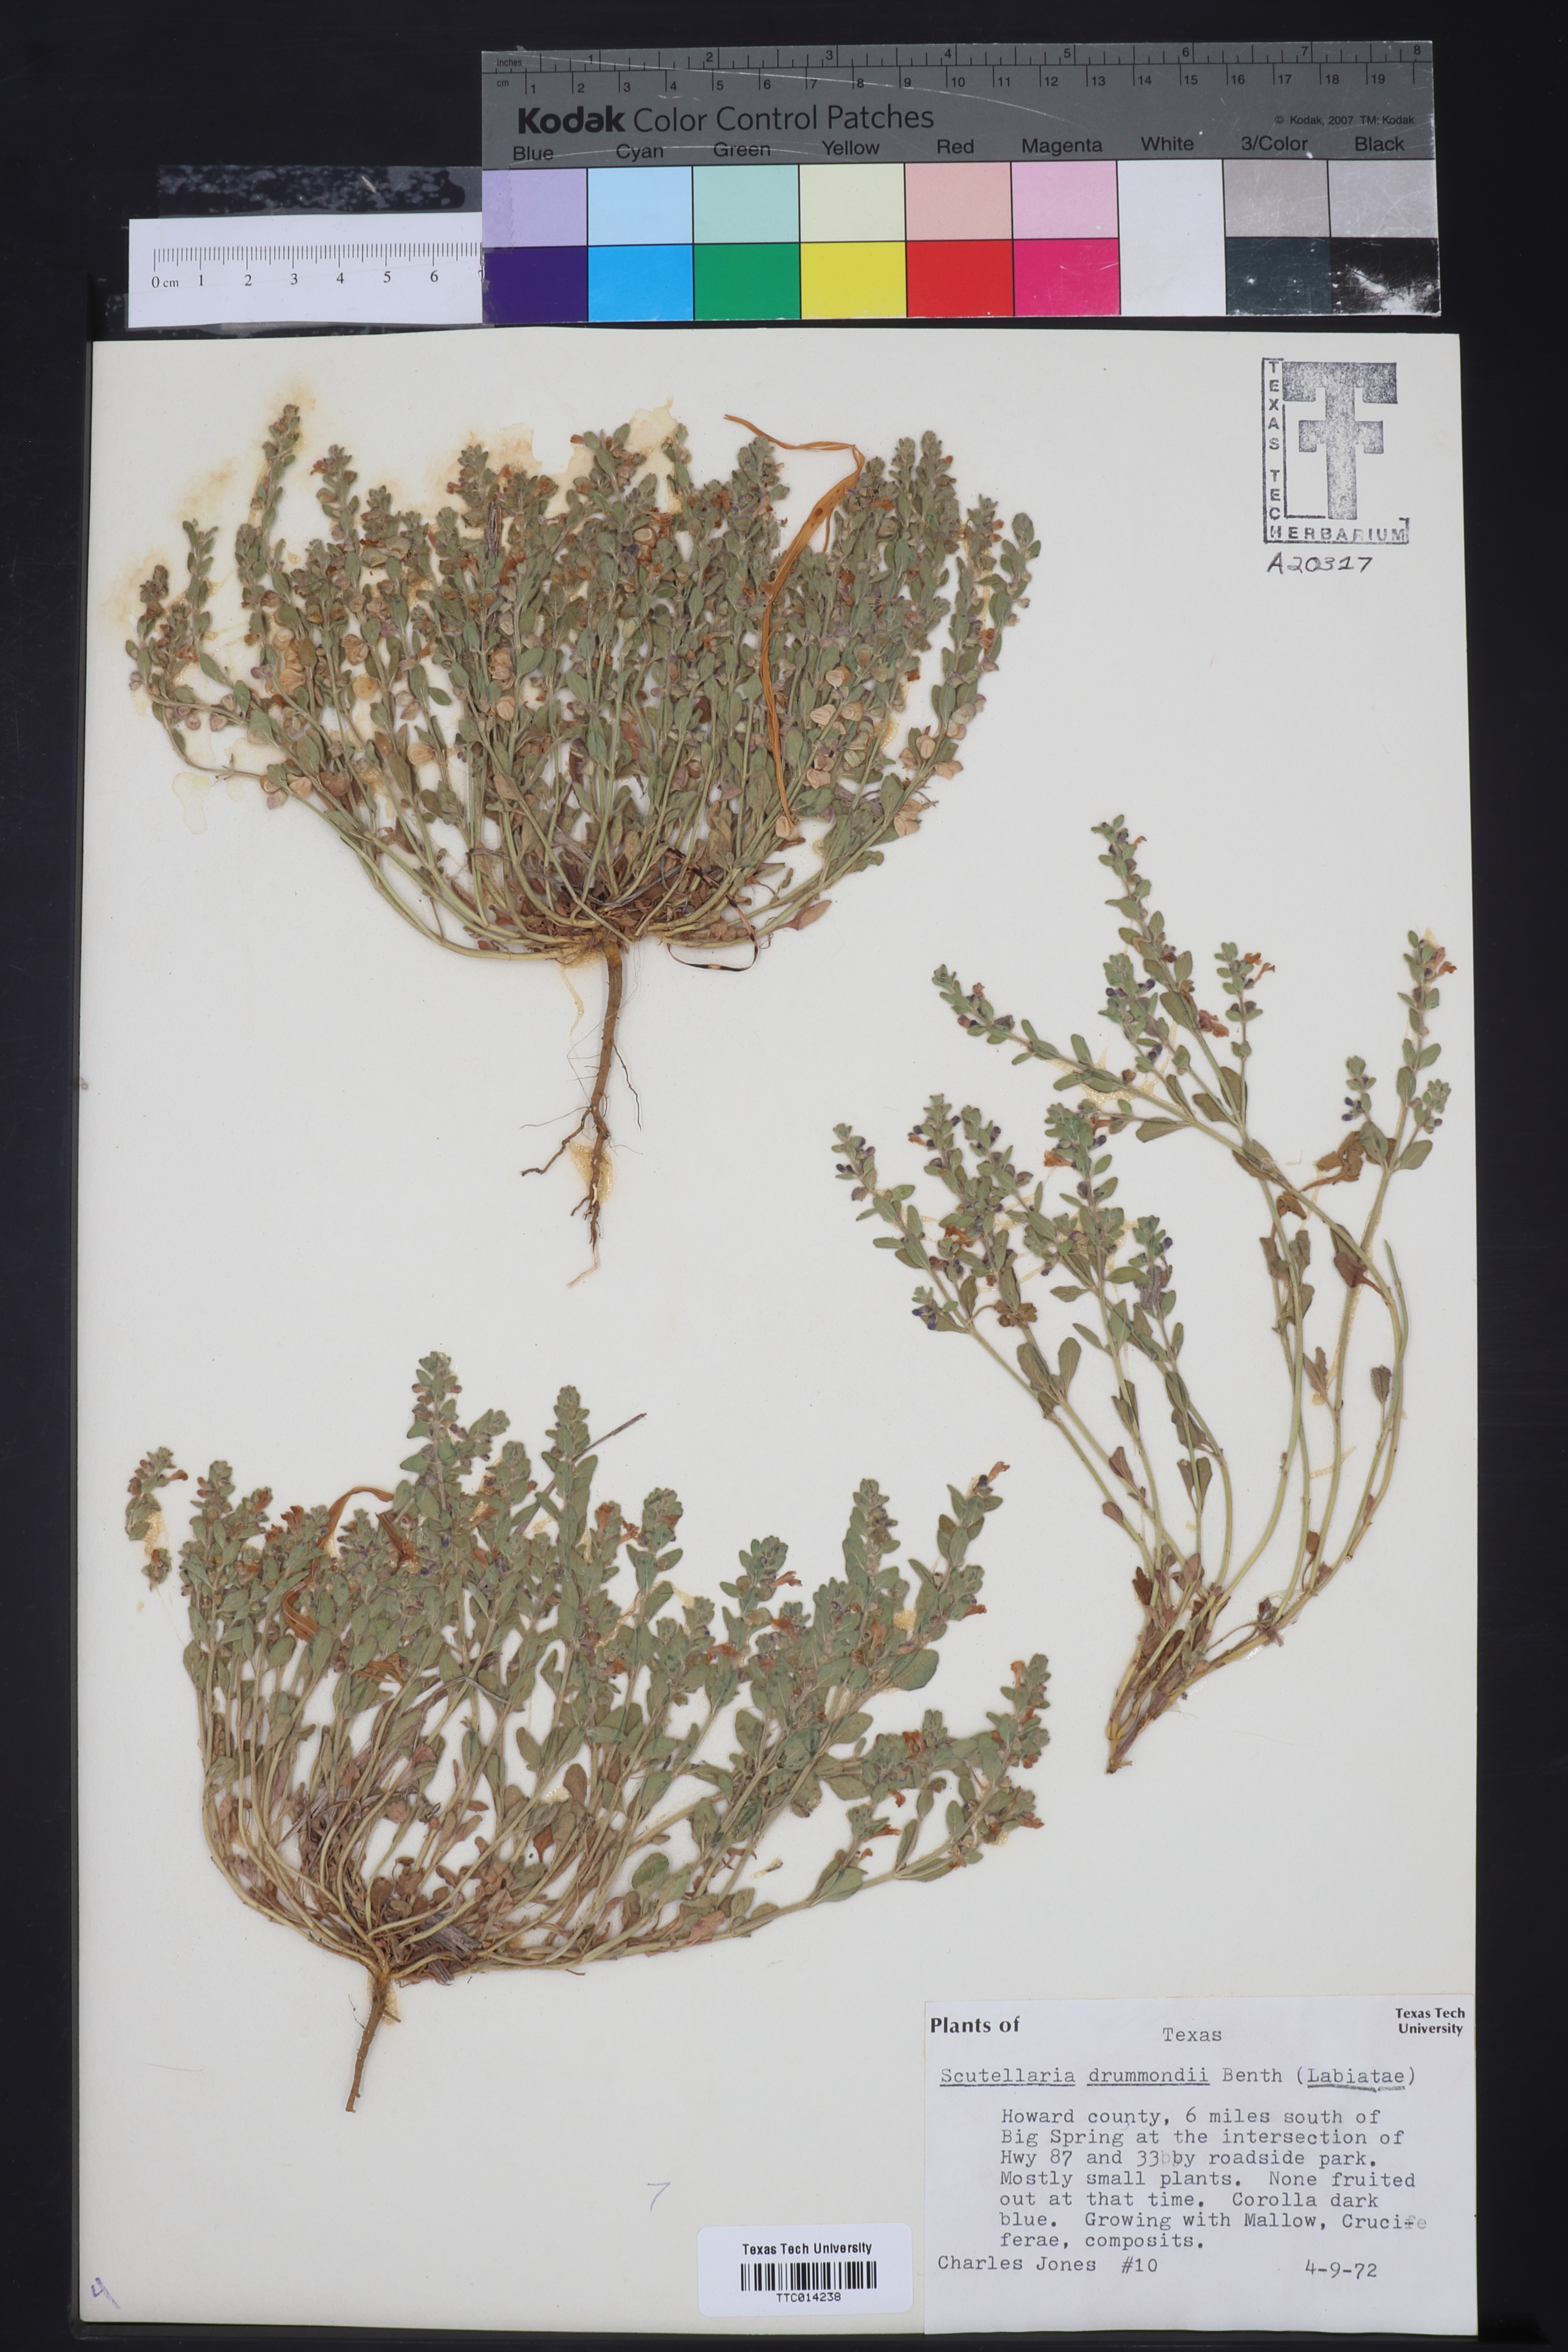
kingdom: Plantae
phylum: Tracheophyta
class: Magnoliopsida
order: Lamiales
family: Lamiaceae
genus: Scutellaria
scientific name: Scutellaria drummondii
